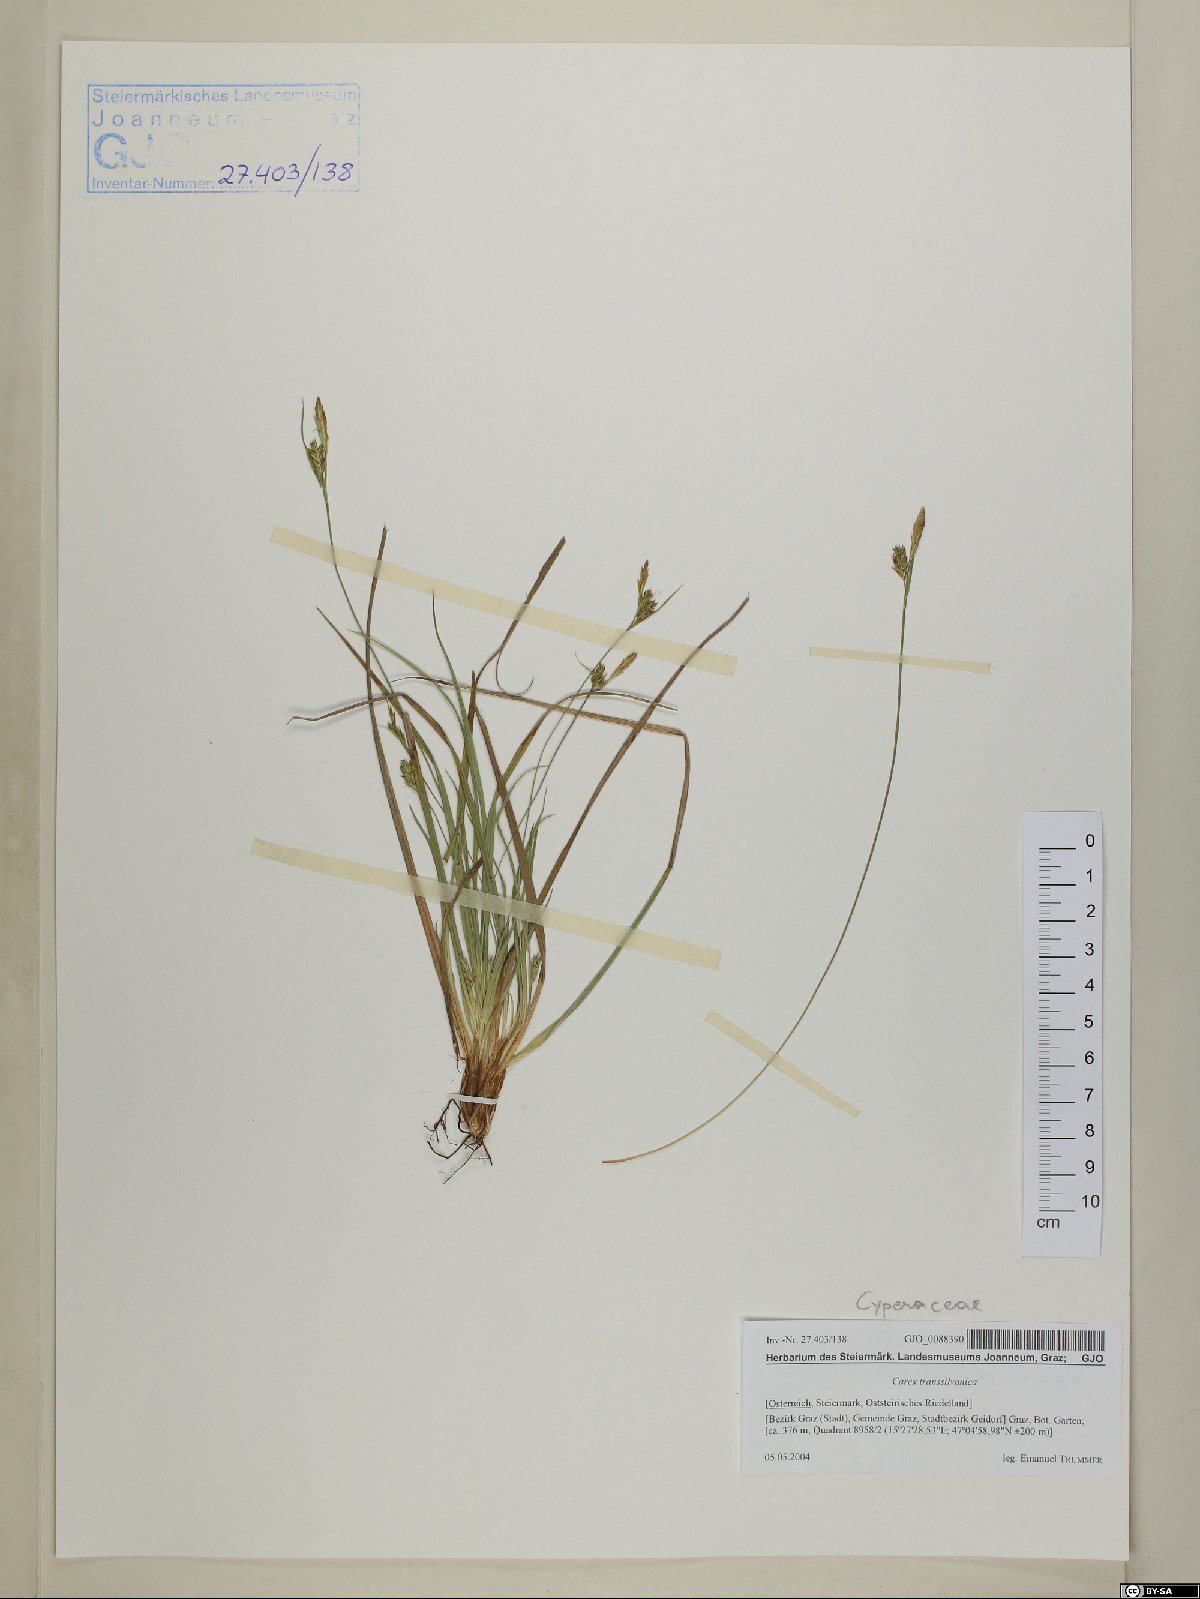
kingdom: Plantae
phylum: Tracheophyta
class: Liliopsida
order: Poales
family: Cyperaceae
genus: Carex
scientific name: Carex depressa
